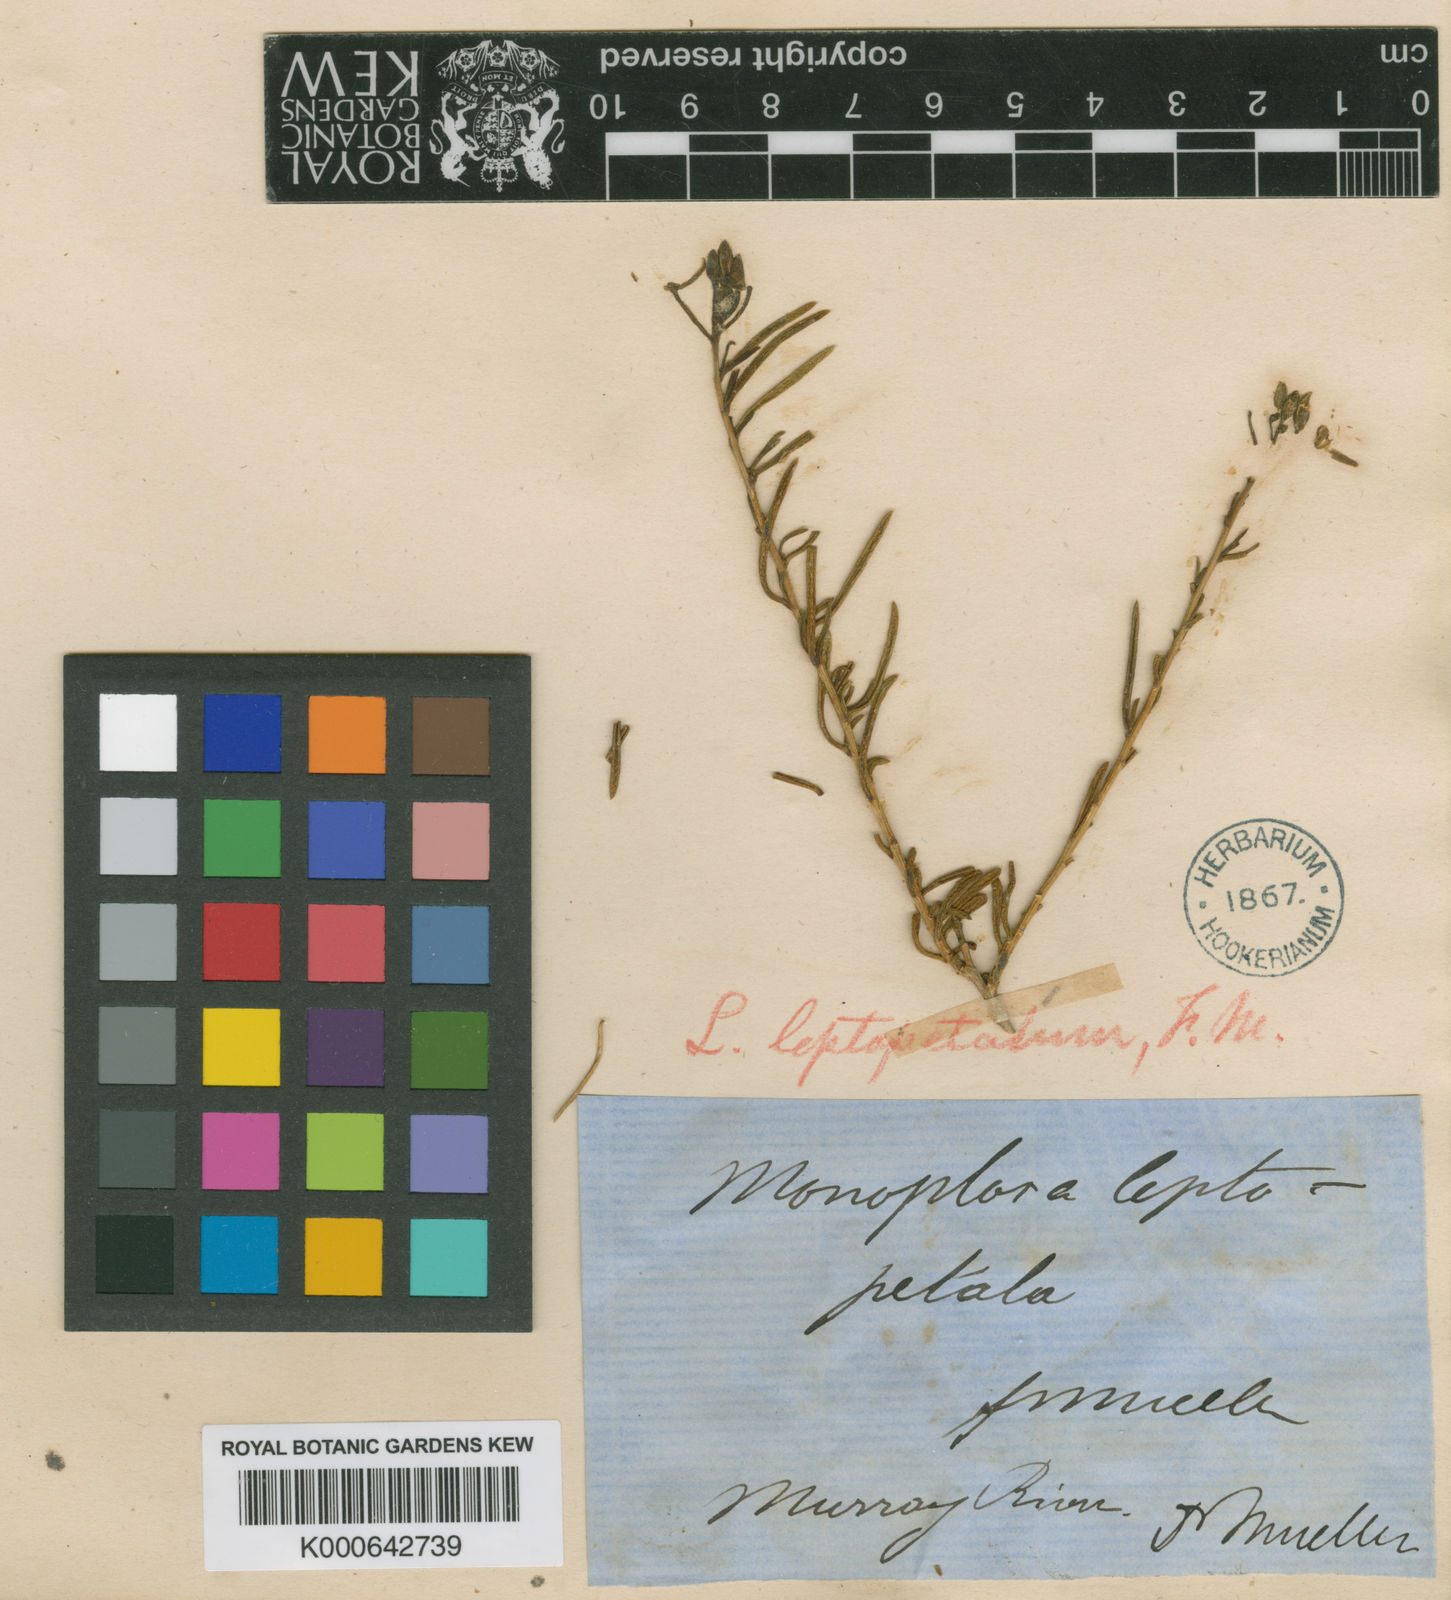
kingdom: Plantae
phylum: Tracheophyta
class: Magnoliopsida
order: Brassicales
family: Brassicaceae
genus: Lepidium
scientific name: Lepidium leptopetalum
